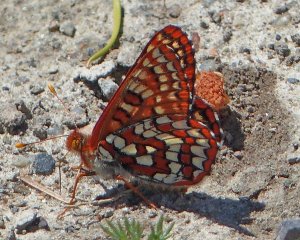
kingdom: Animalia
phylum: Arthropoda
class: Insecta
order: Lepidoptera
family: Nymphalidae
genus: Occidryas
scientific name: Occidryas anicia
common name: Anicia Checkerspot
